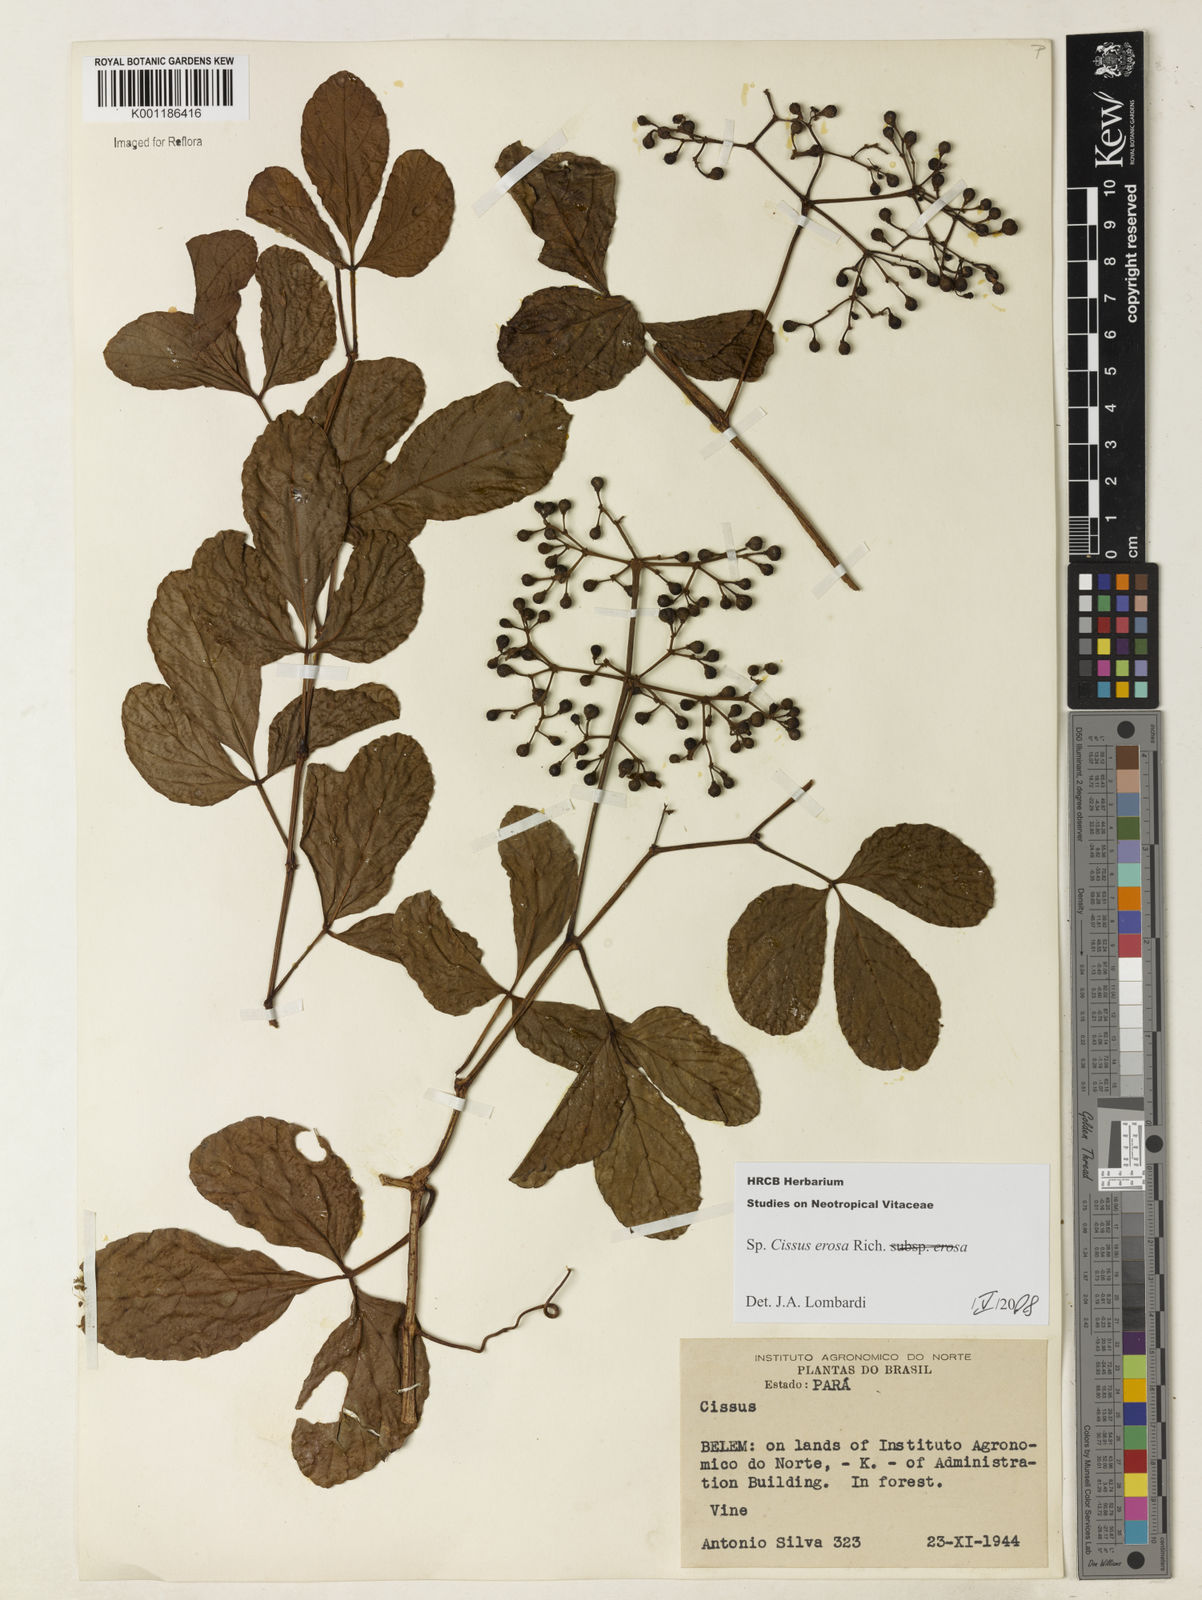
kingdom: Plantae
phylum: Tracheophyta
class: Magnoliopsida
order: Vitales
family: Vitaceae
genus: Cissus
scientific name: Cissus erosa
